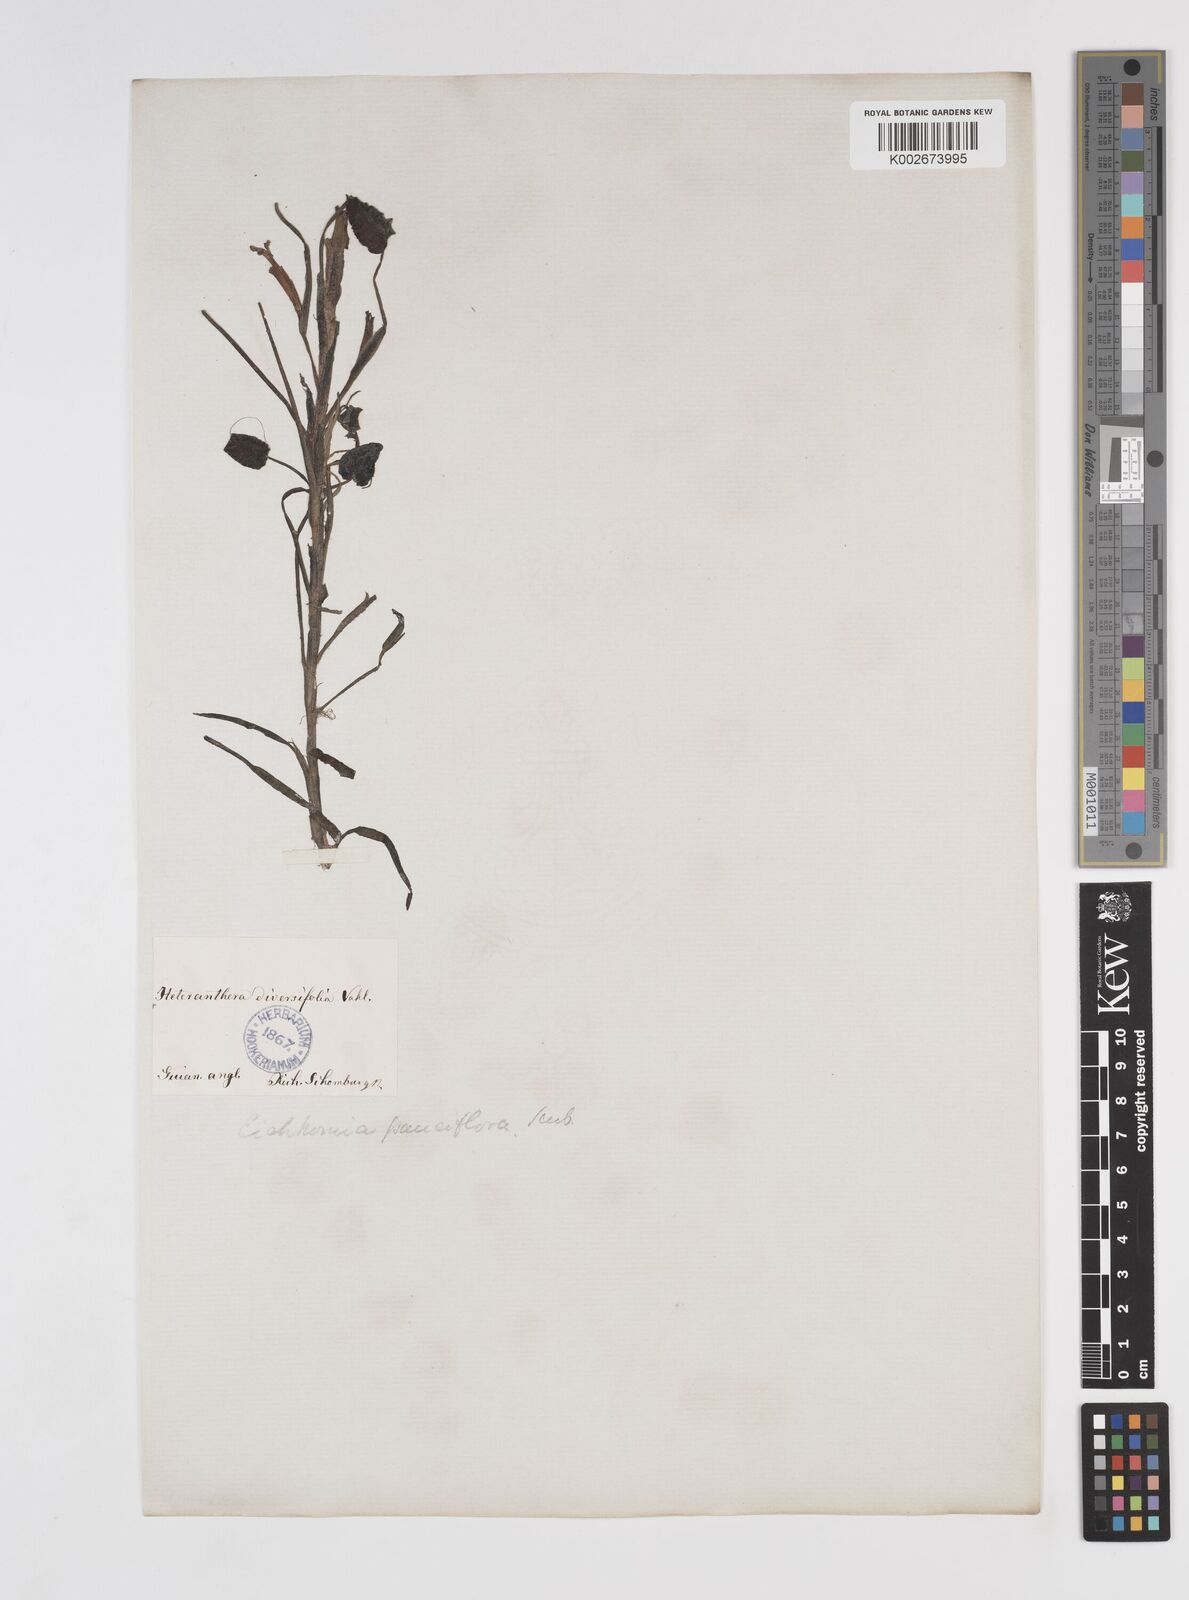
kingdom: Plantae
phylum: Tracheophyta
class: Liliopsida
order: Commelinales
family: Pontederiaceae
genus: Pontederia
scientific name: Pontederia diversifolia
